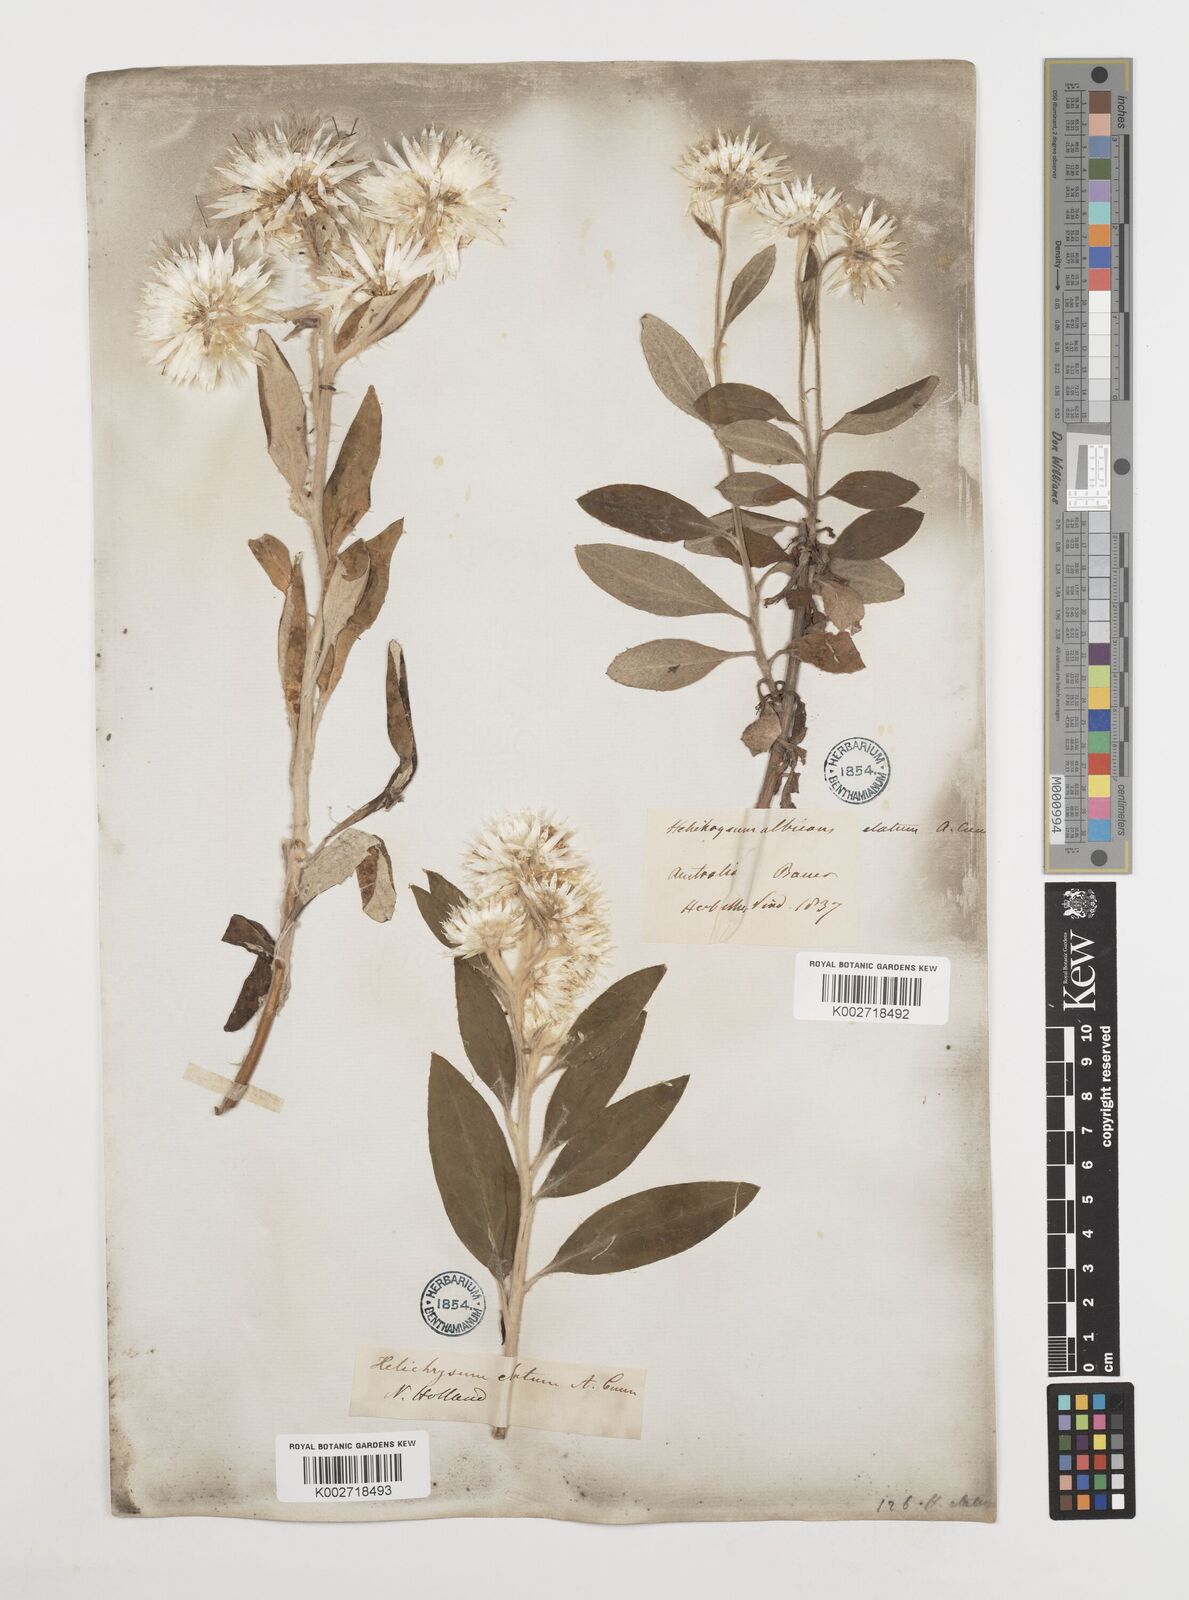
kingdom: Plantae
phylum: Tracheophyta
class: Magnoliopsida
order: Asterales
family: Asteraceae
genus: Leucozoma
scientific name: Leucozoma elatum
